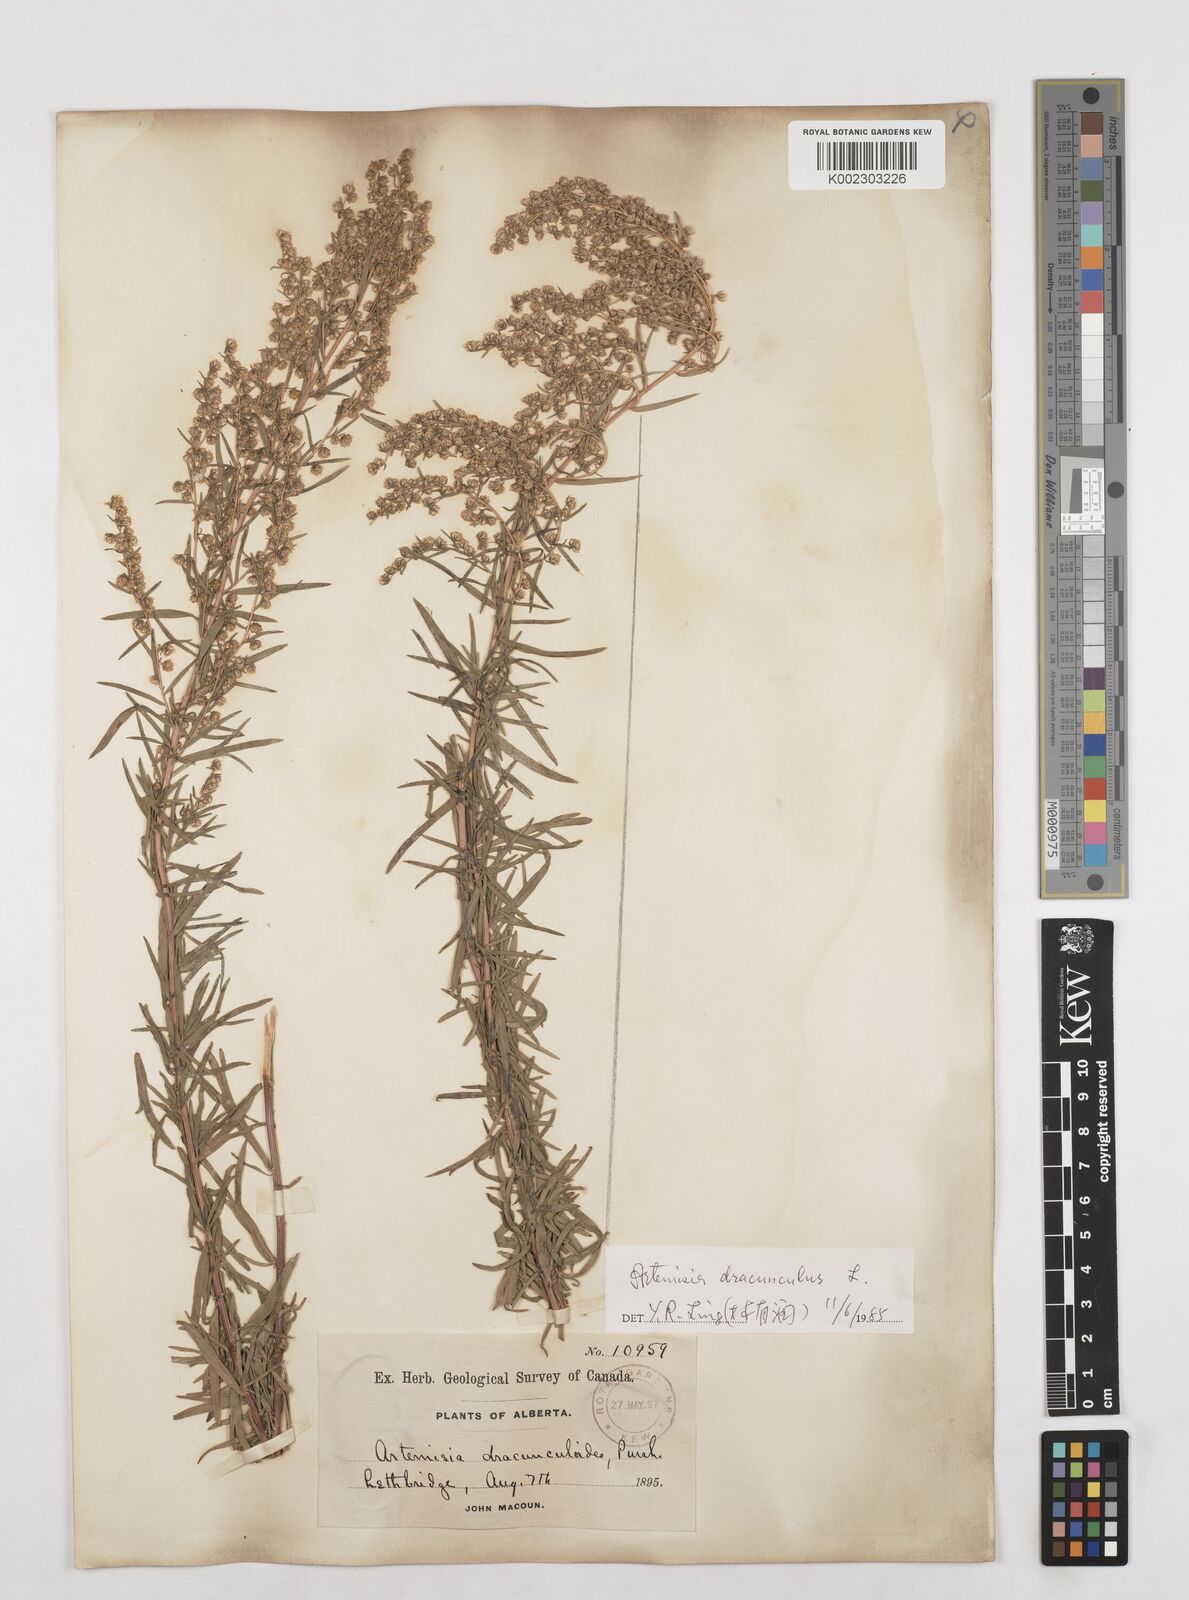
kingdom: Plantae
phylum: Tracheophyta
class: Magnoliopsida
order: Asterales
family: Asteraceae
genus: Artemisia
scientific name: Artemisia dracunculus
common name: Tarragon
